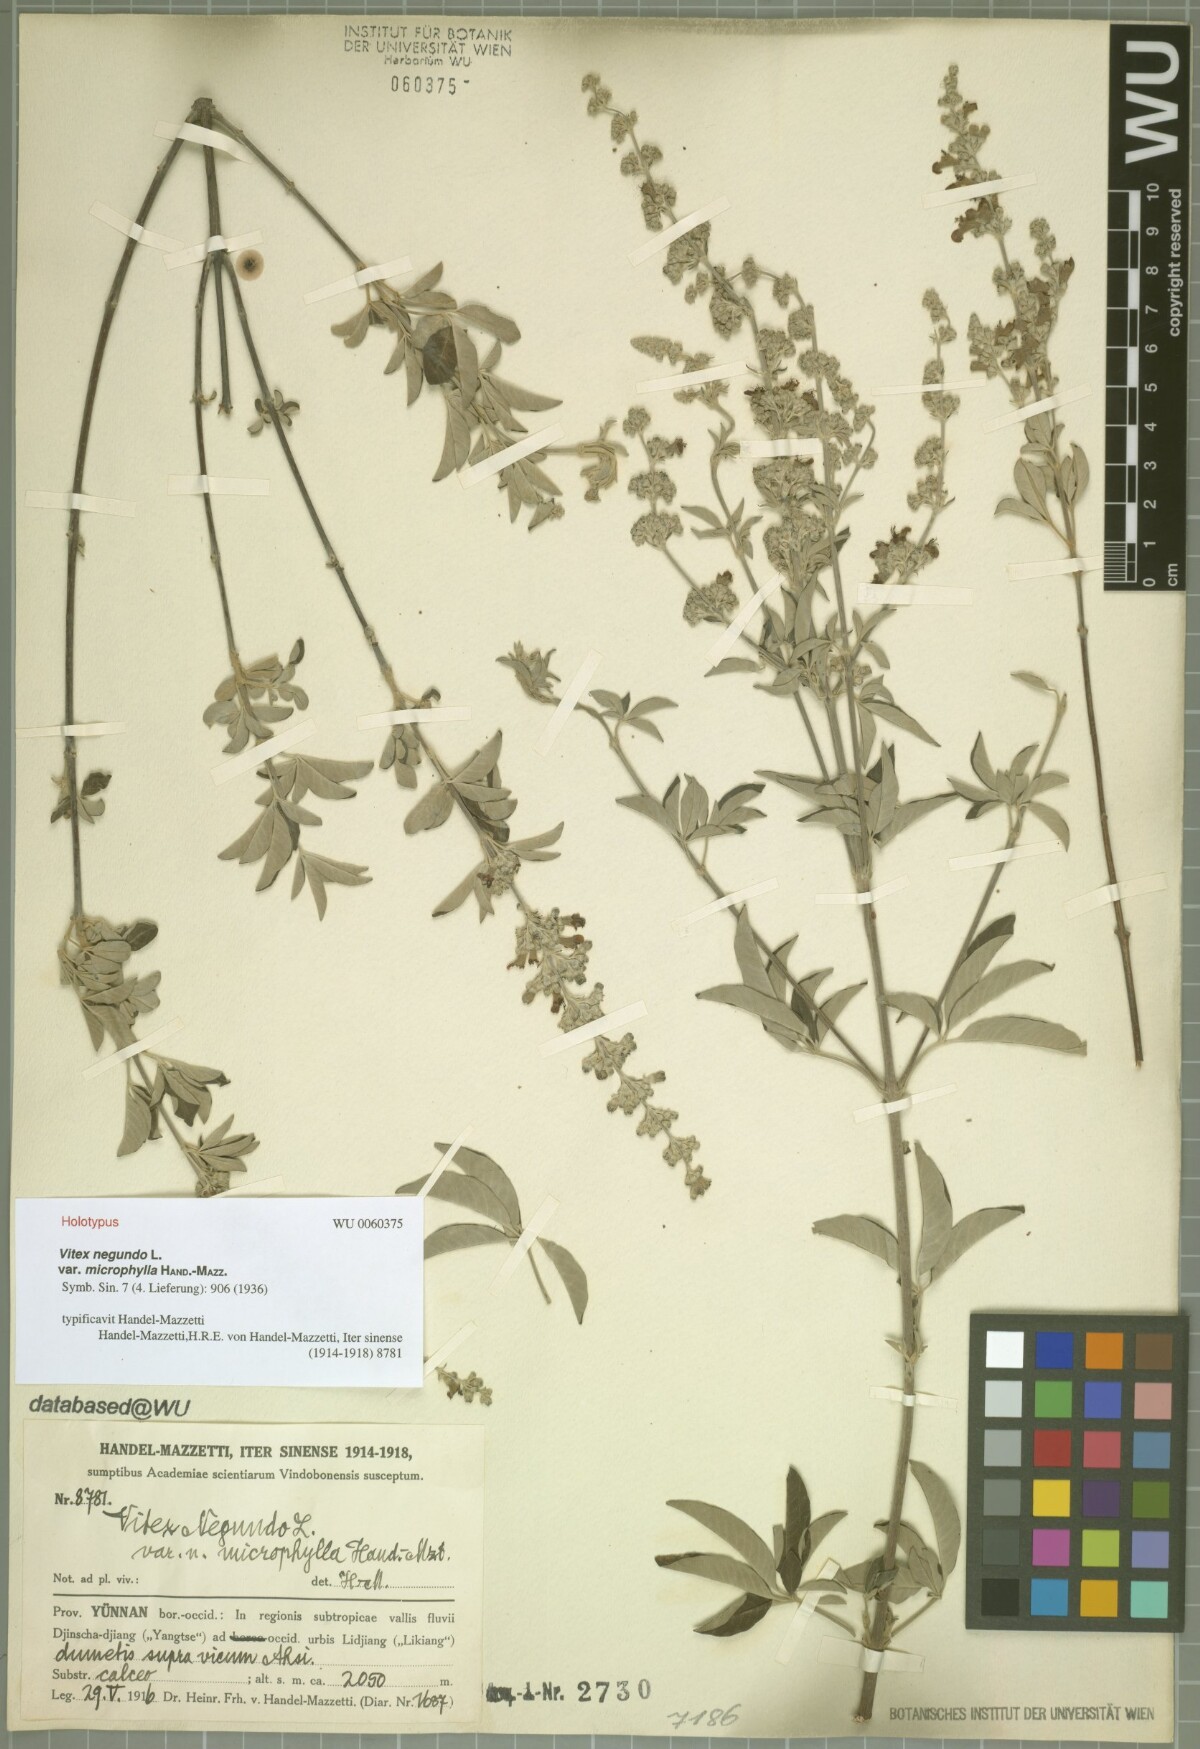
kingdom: Plantae
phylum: Tracheophyta
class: Magnoliopsida
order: Lamiales
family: Lamiaceae
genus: Vitex
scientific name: Vitex negundo
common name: Chinese chastetree
